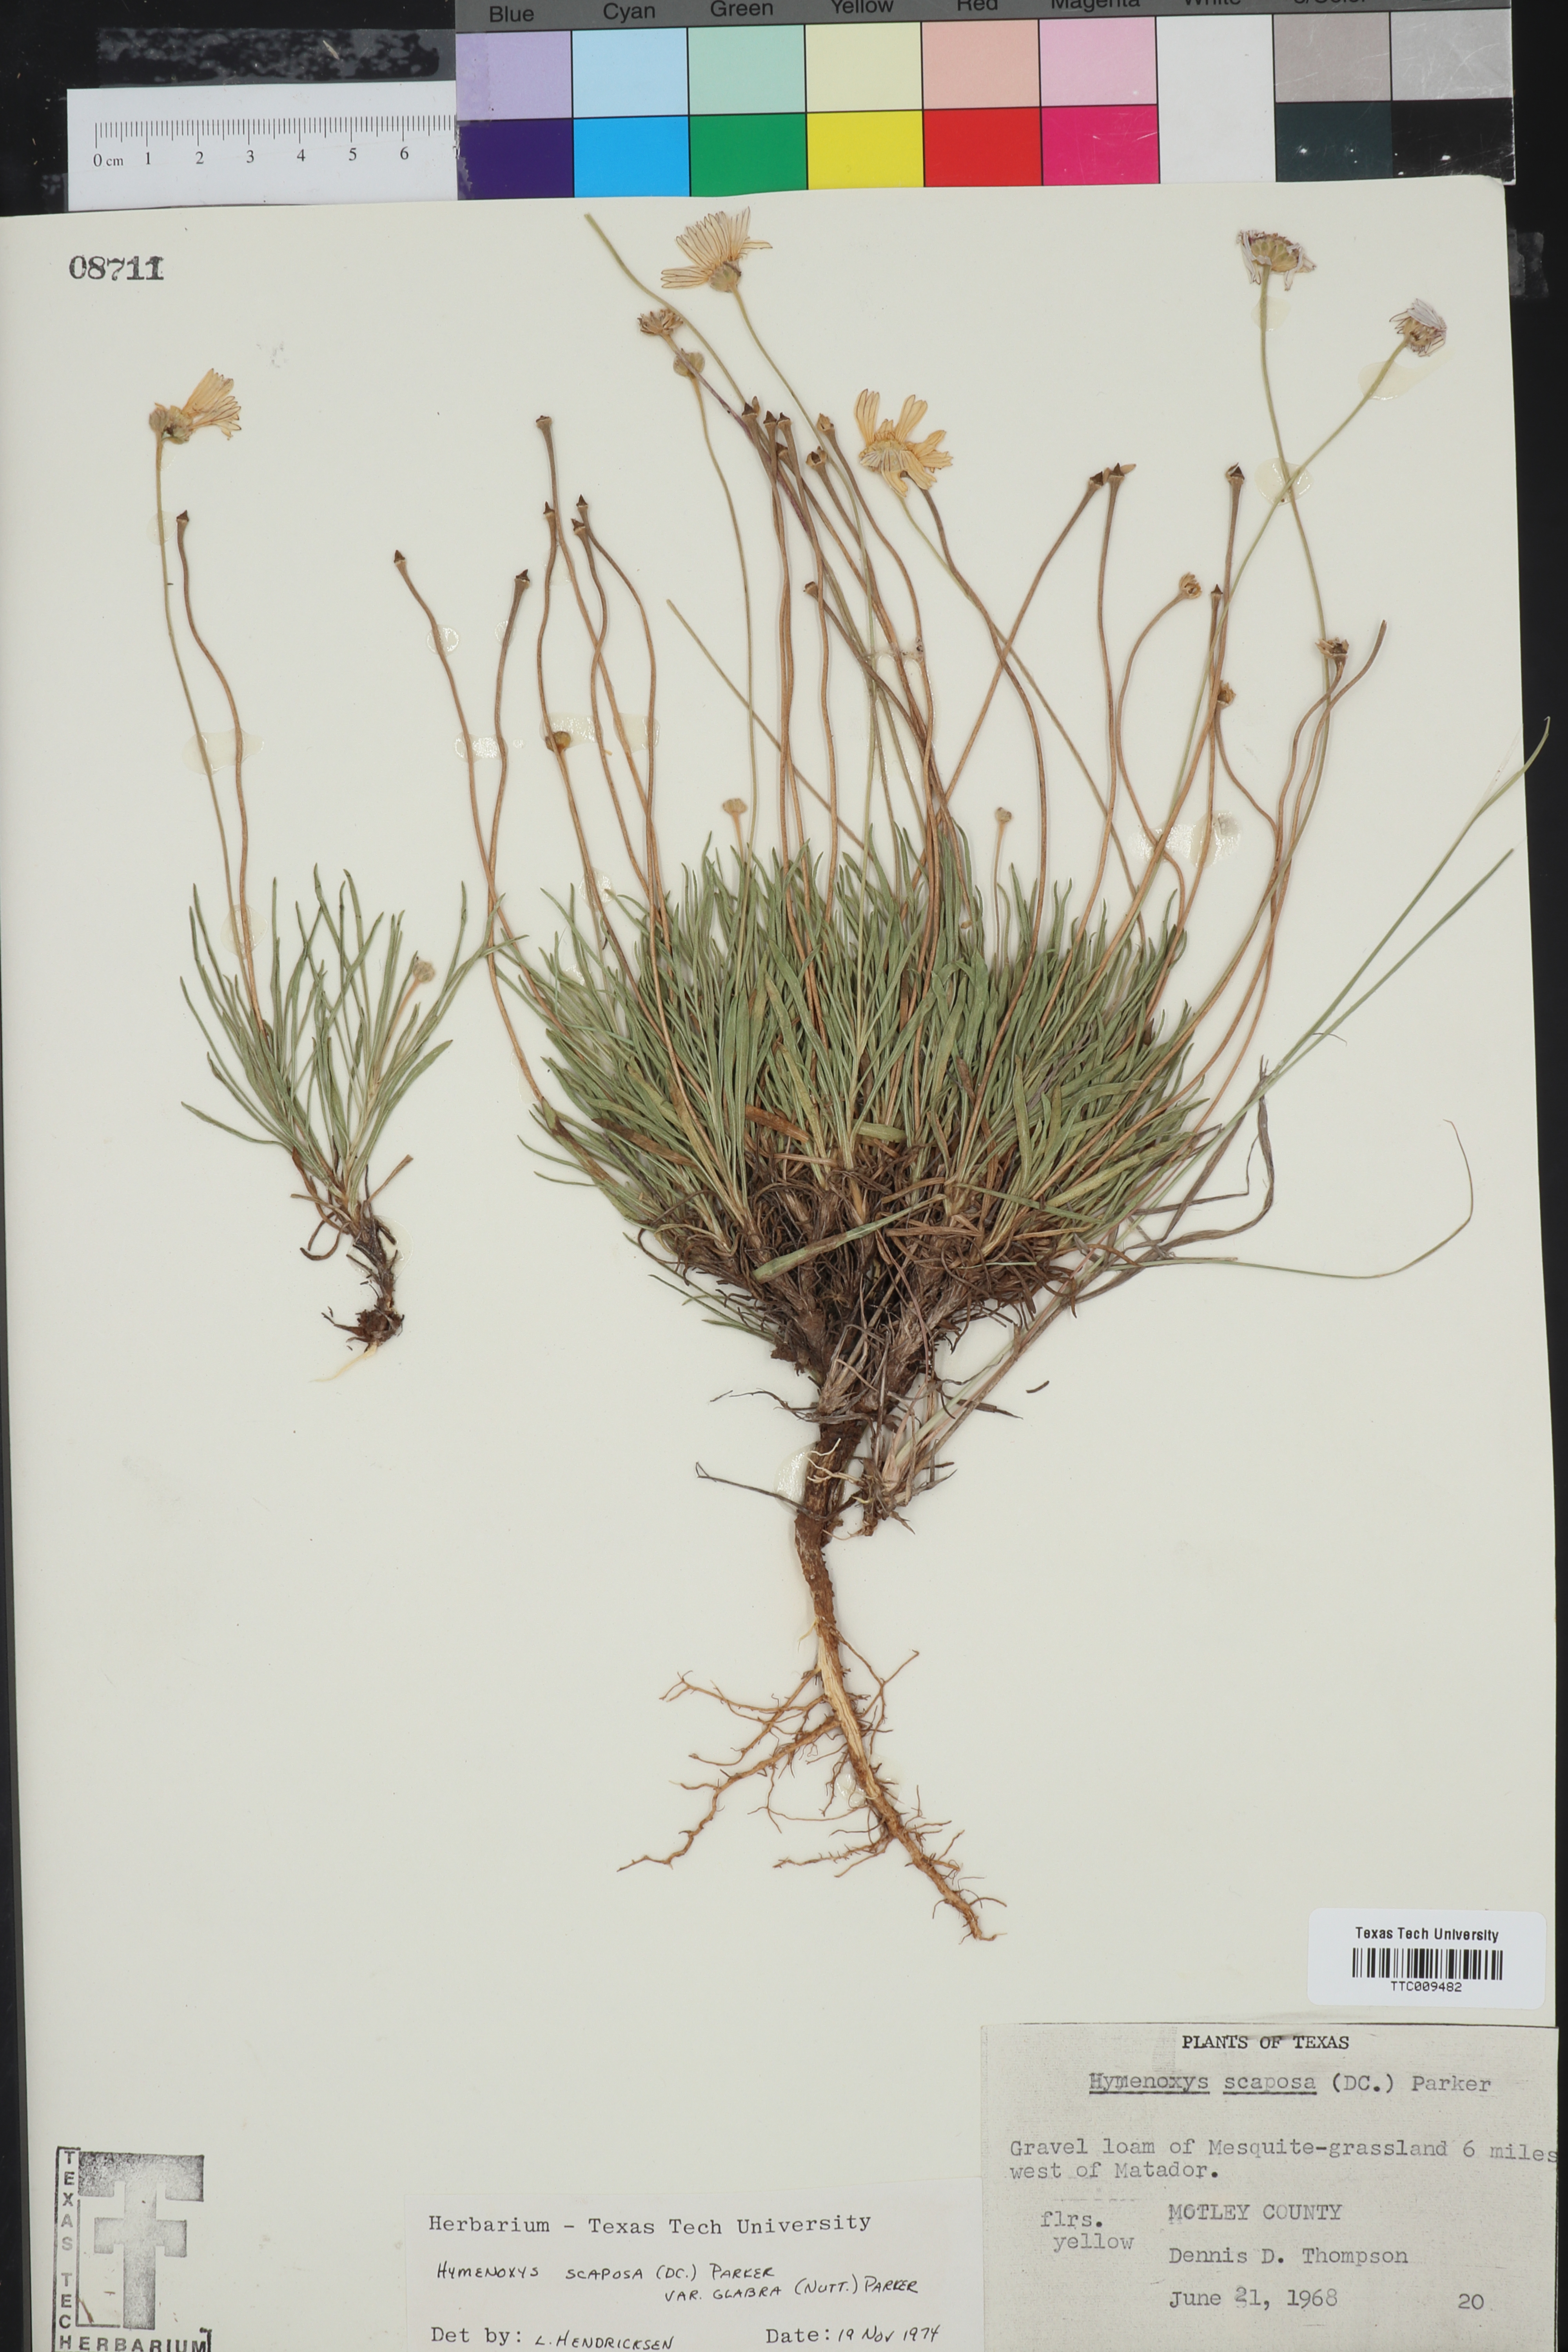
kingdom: Plantae
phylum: Tracheophyta
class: Magnoliopsida
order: Asterales
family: Asteraceae
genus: Tetraneuris
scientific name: Tetraneuris scaposa
